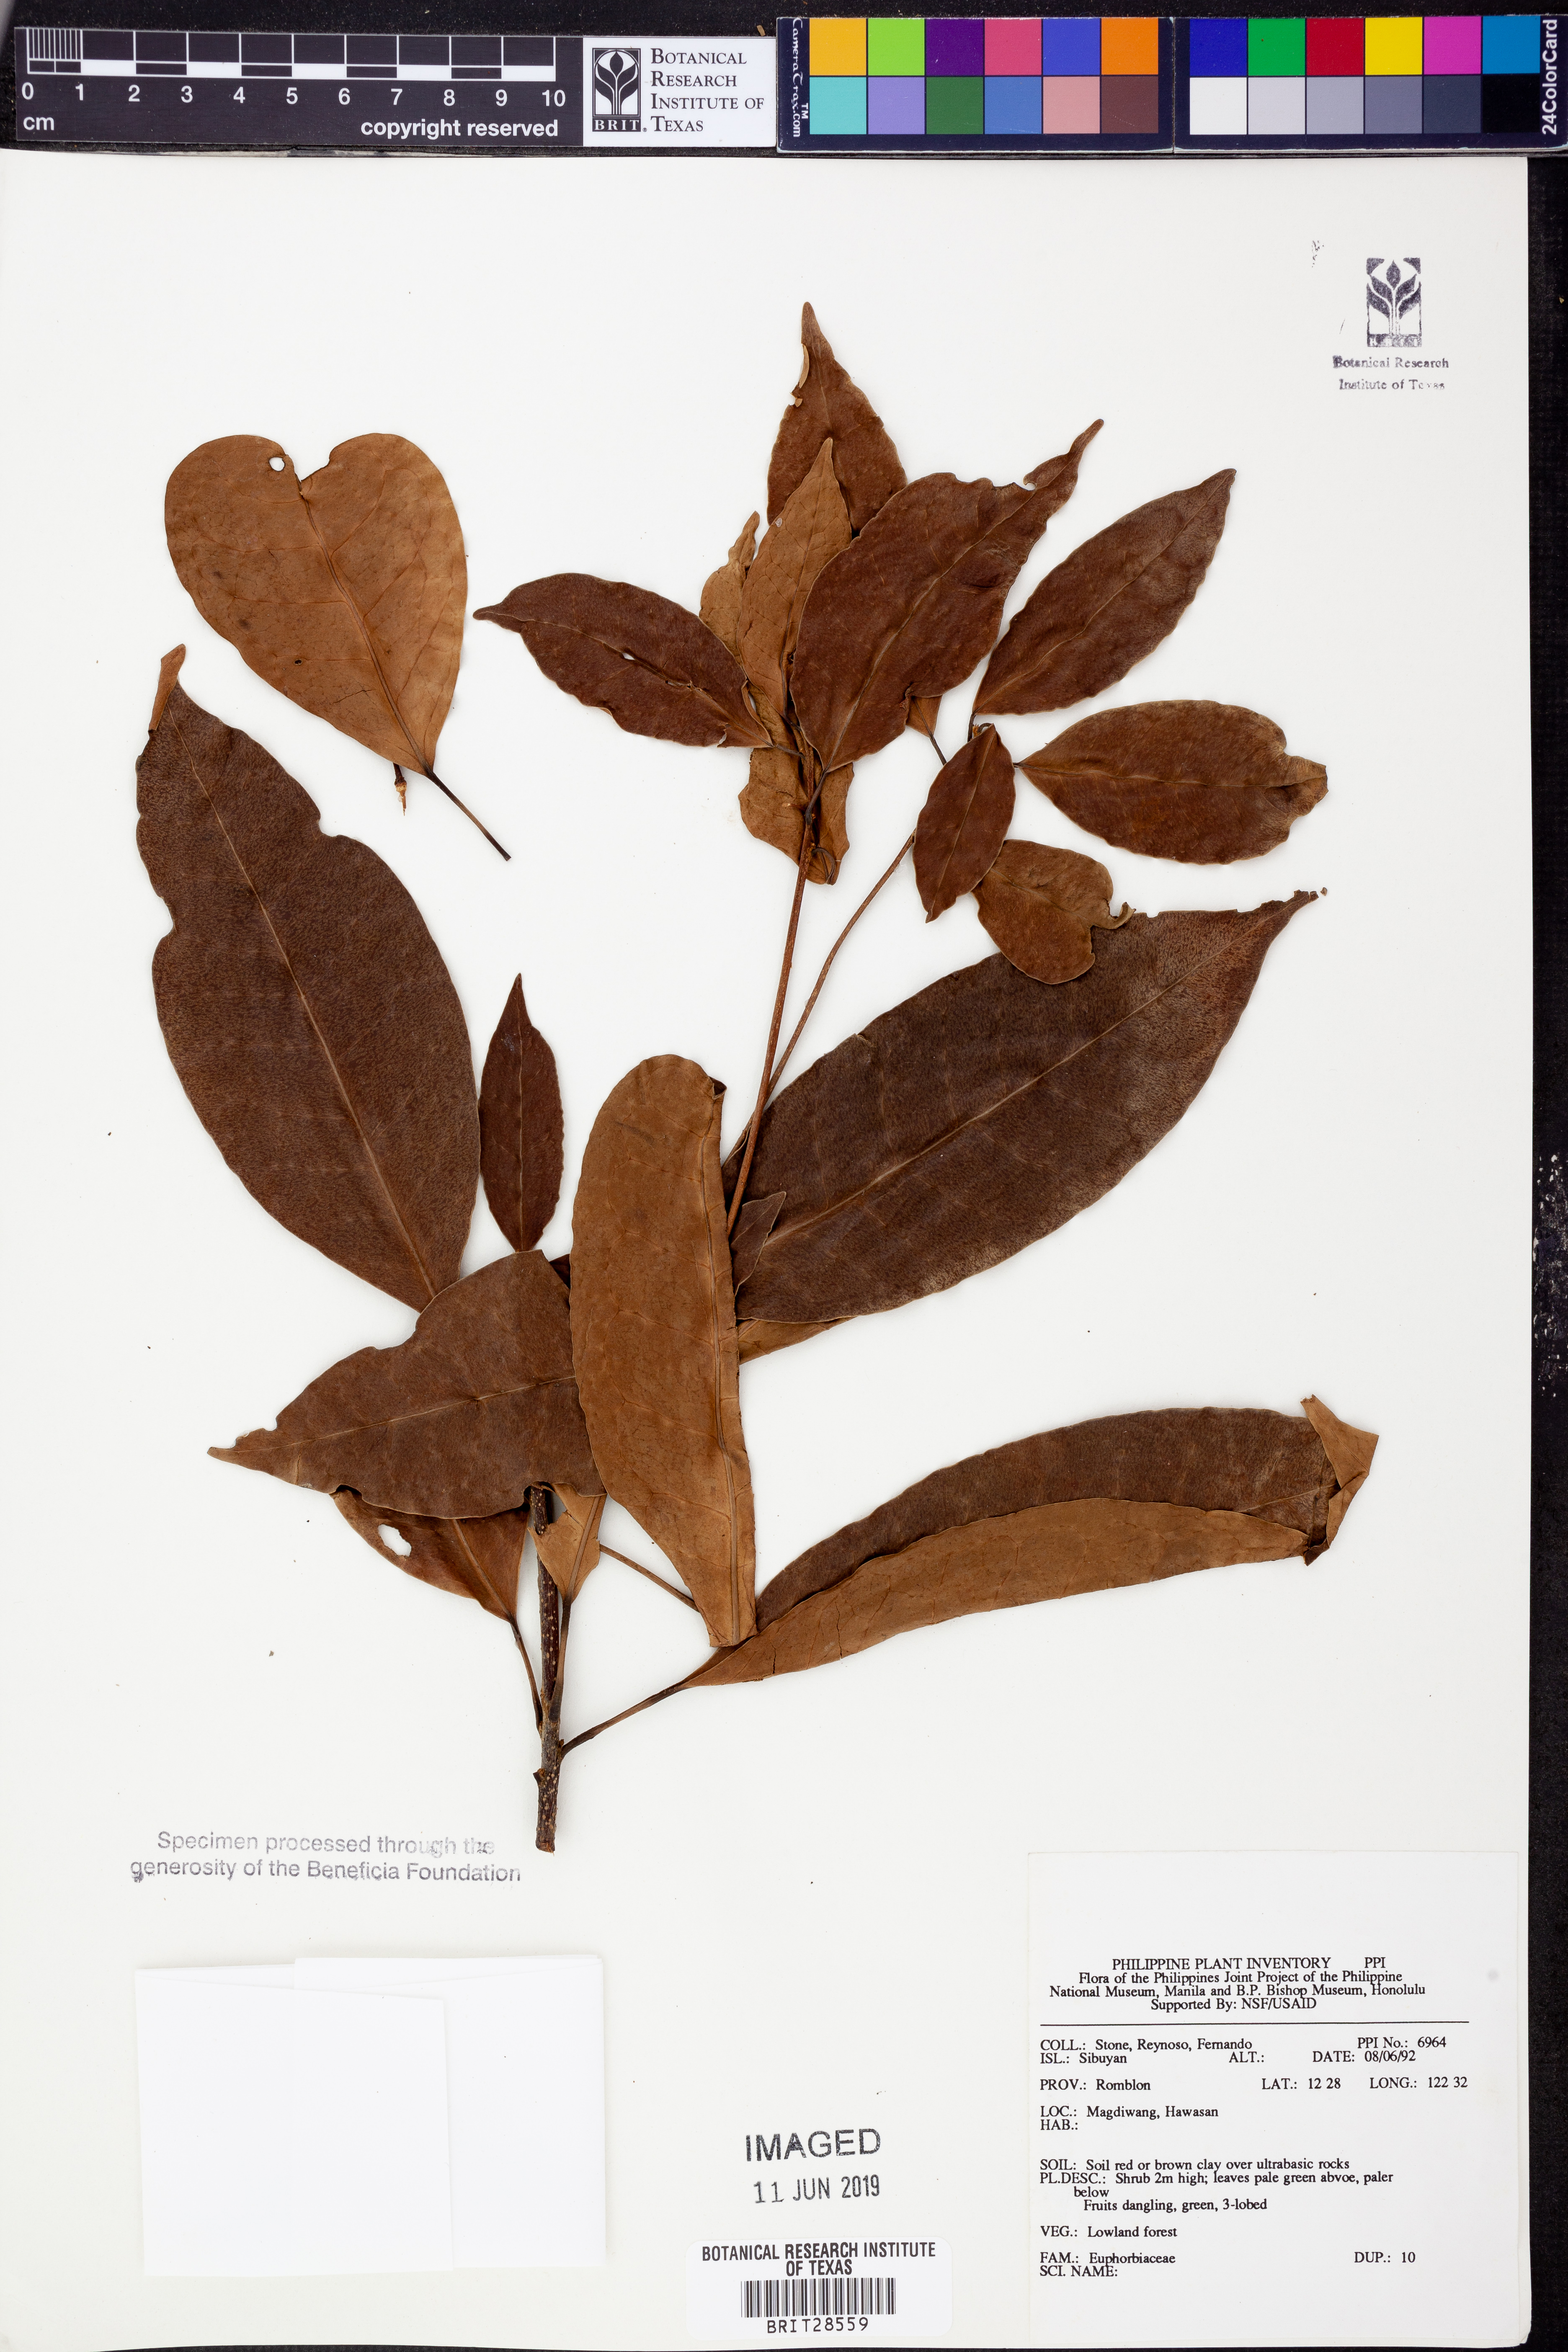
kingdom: Plantae
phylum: Tracheophyta
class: Magnoliopsida
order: Malpighiales
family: Euphorbiaceae
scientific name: Euphorbiaceae
